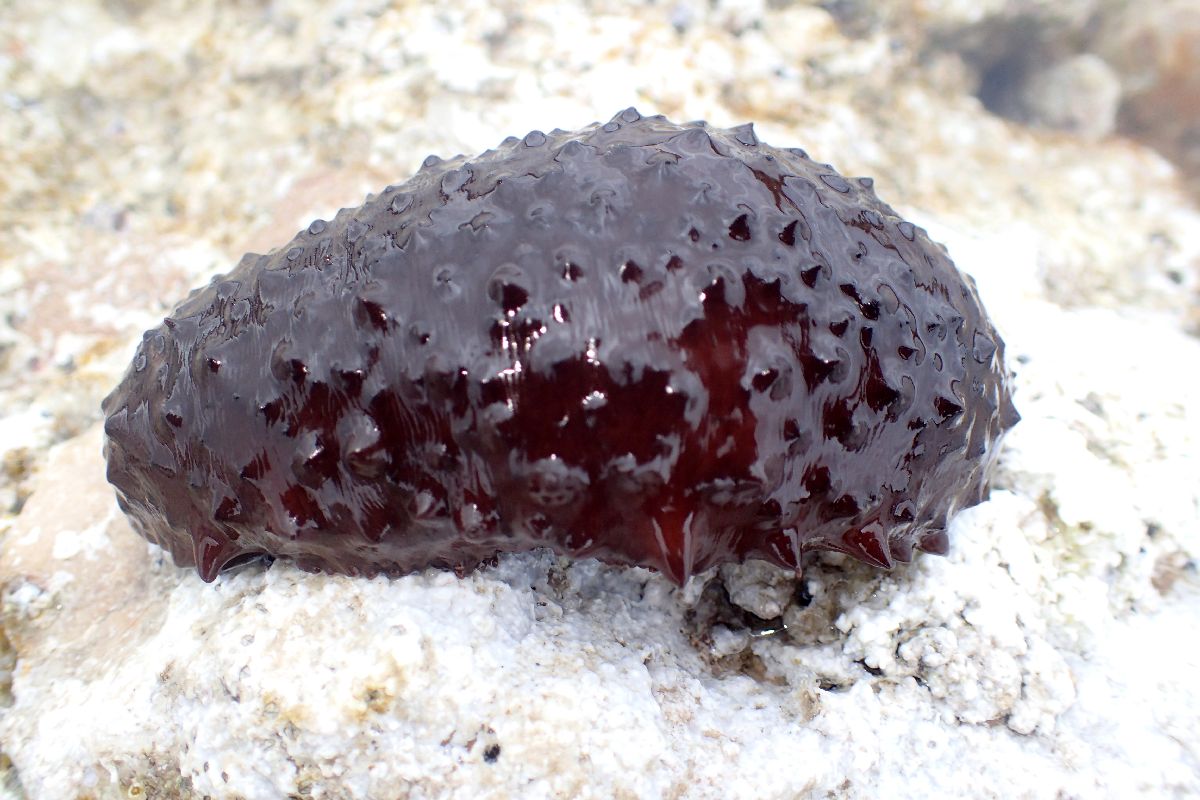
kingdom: Animalia
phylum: Echinodermata
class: Holothuroidea
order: Holothuriida
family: Holothuriidae
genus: Holothuria
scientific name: Holothuria sanctori
